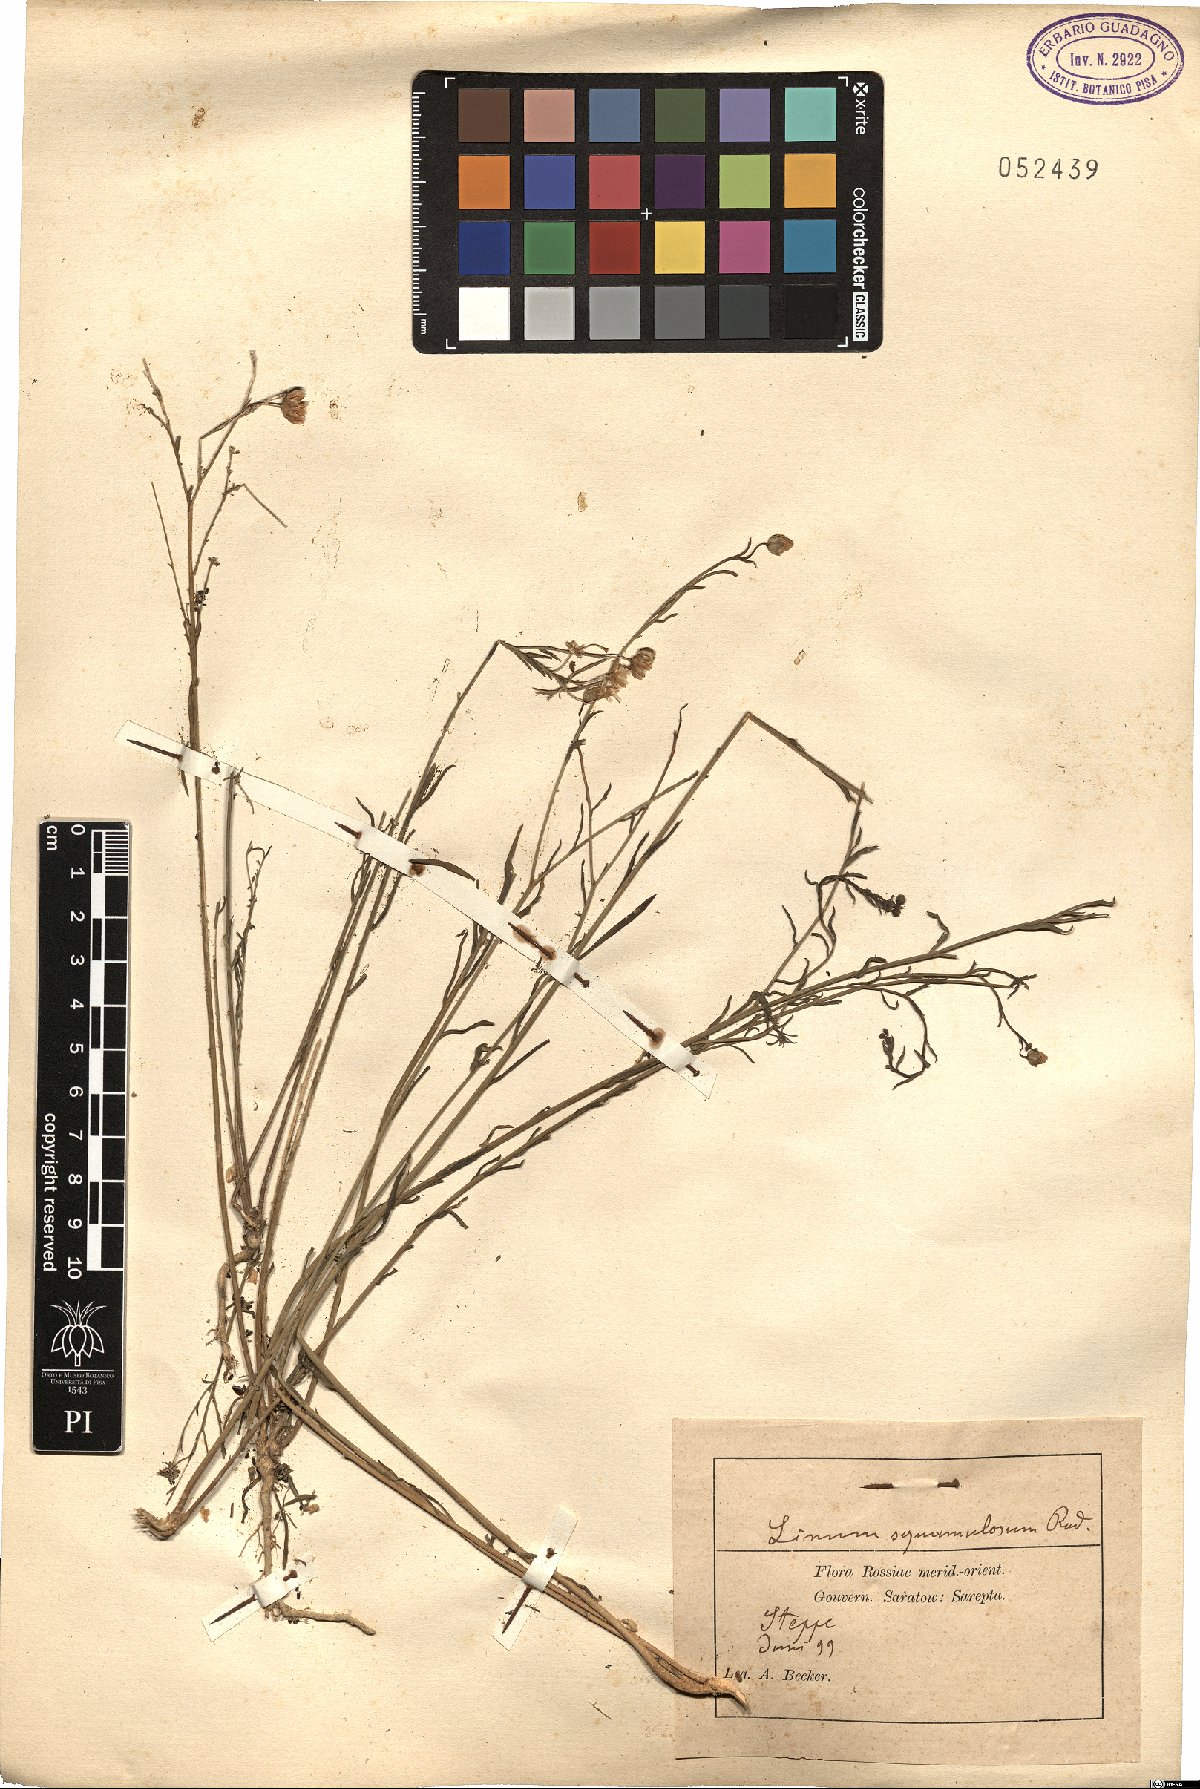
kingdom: Plantae
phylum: Tracheophyta
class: Magnoliopsida
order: Malpighiales
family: Linaceae
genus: Linum
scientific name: Linum
